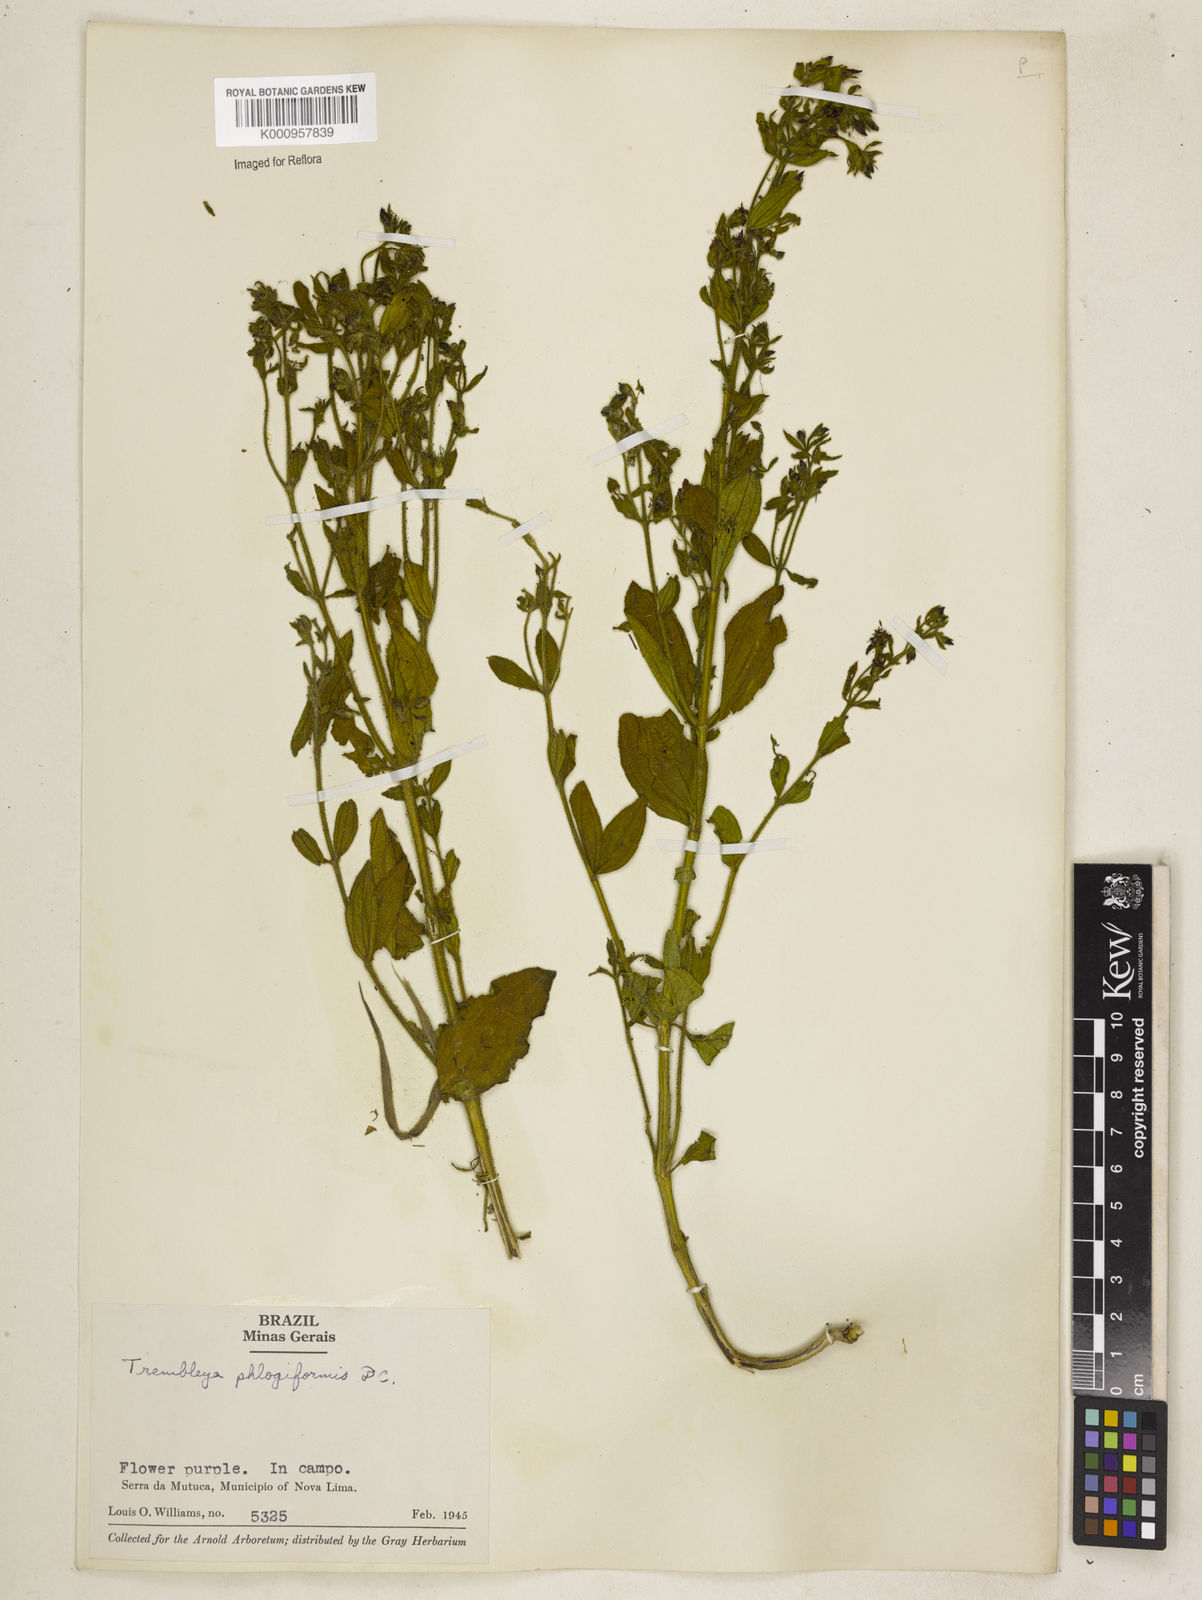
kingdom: Plantae
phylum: Tracheophyta
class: Magnoliopsida
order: Myrtales
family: Melastomataceae
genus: Microlicia
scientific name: Microlicia phlogiformis
